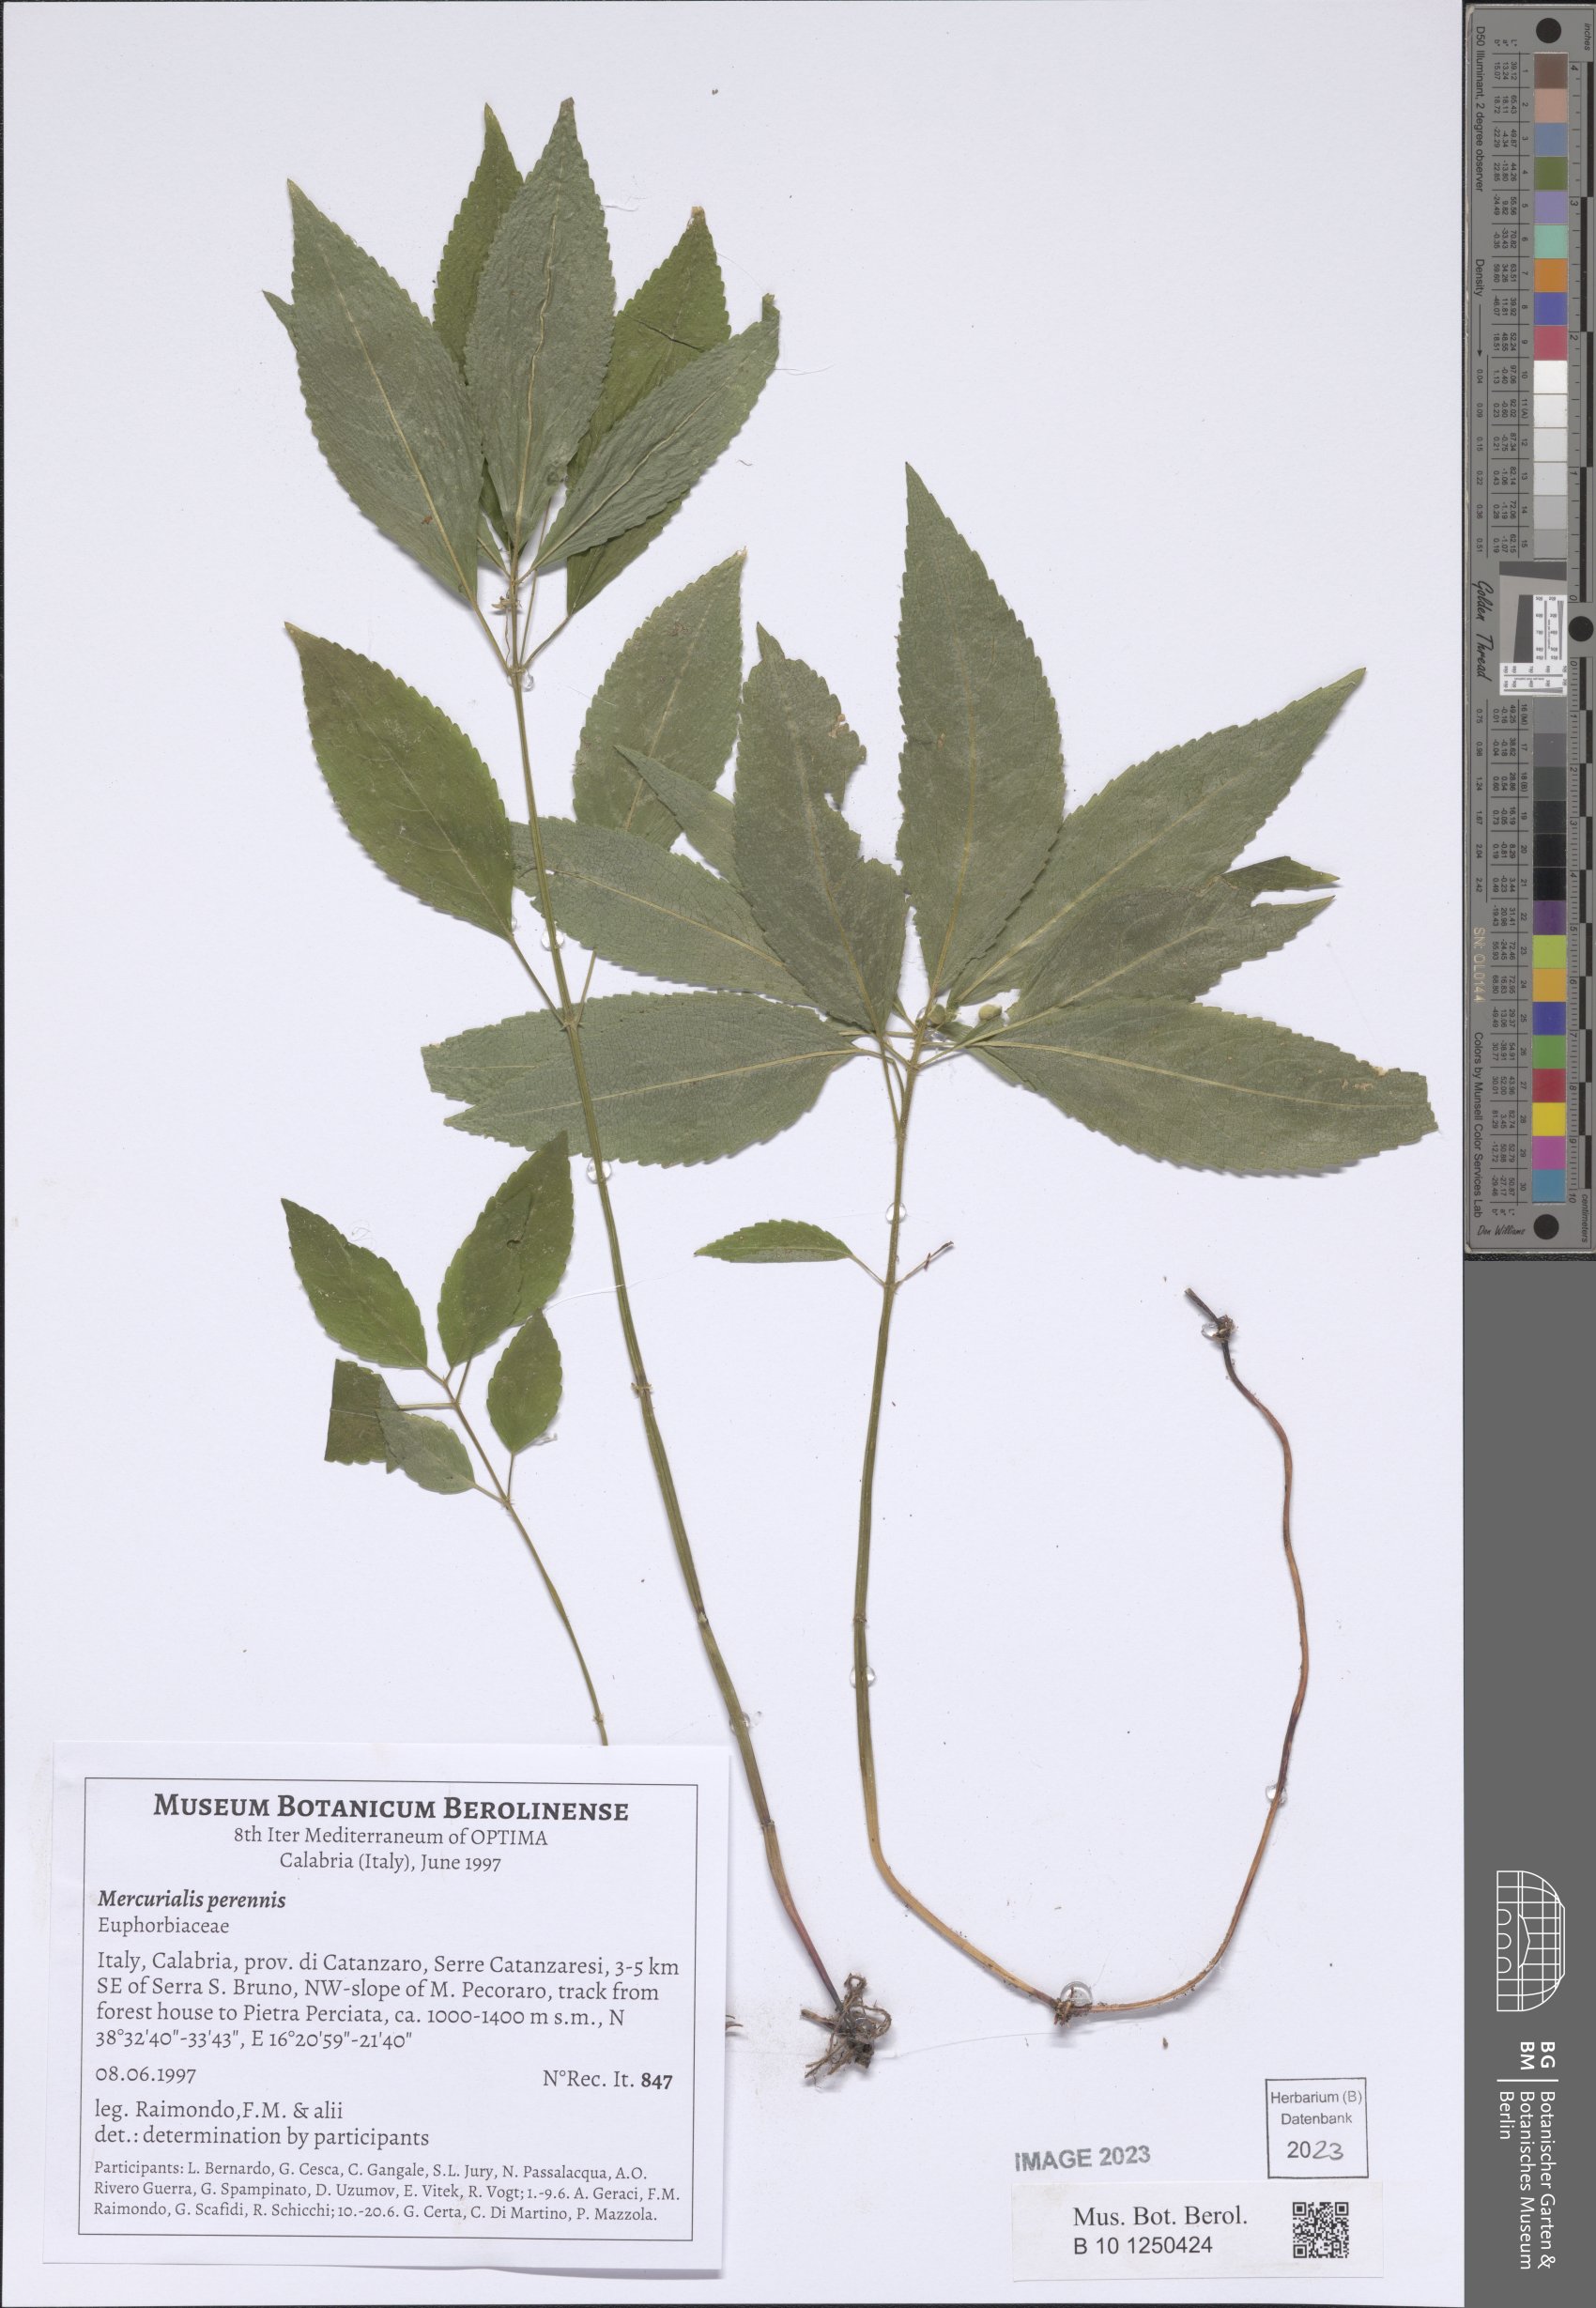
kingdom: Plantae
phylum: Tracheophyta
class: Magnoliopsida
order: Malpighiales
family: Euphorbiaceae
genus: Mercurialis
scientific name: Mercurialis perennis
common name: Dog mercury
